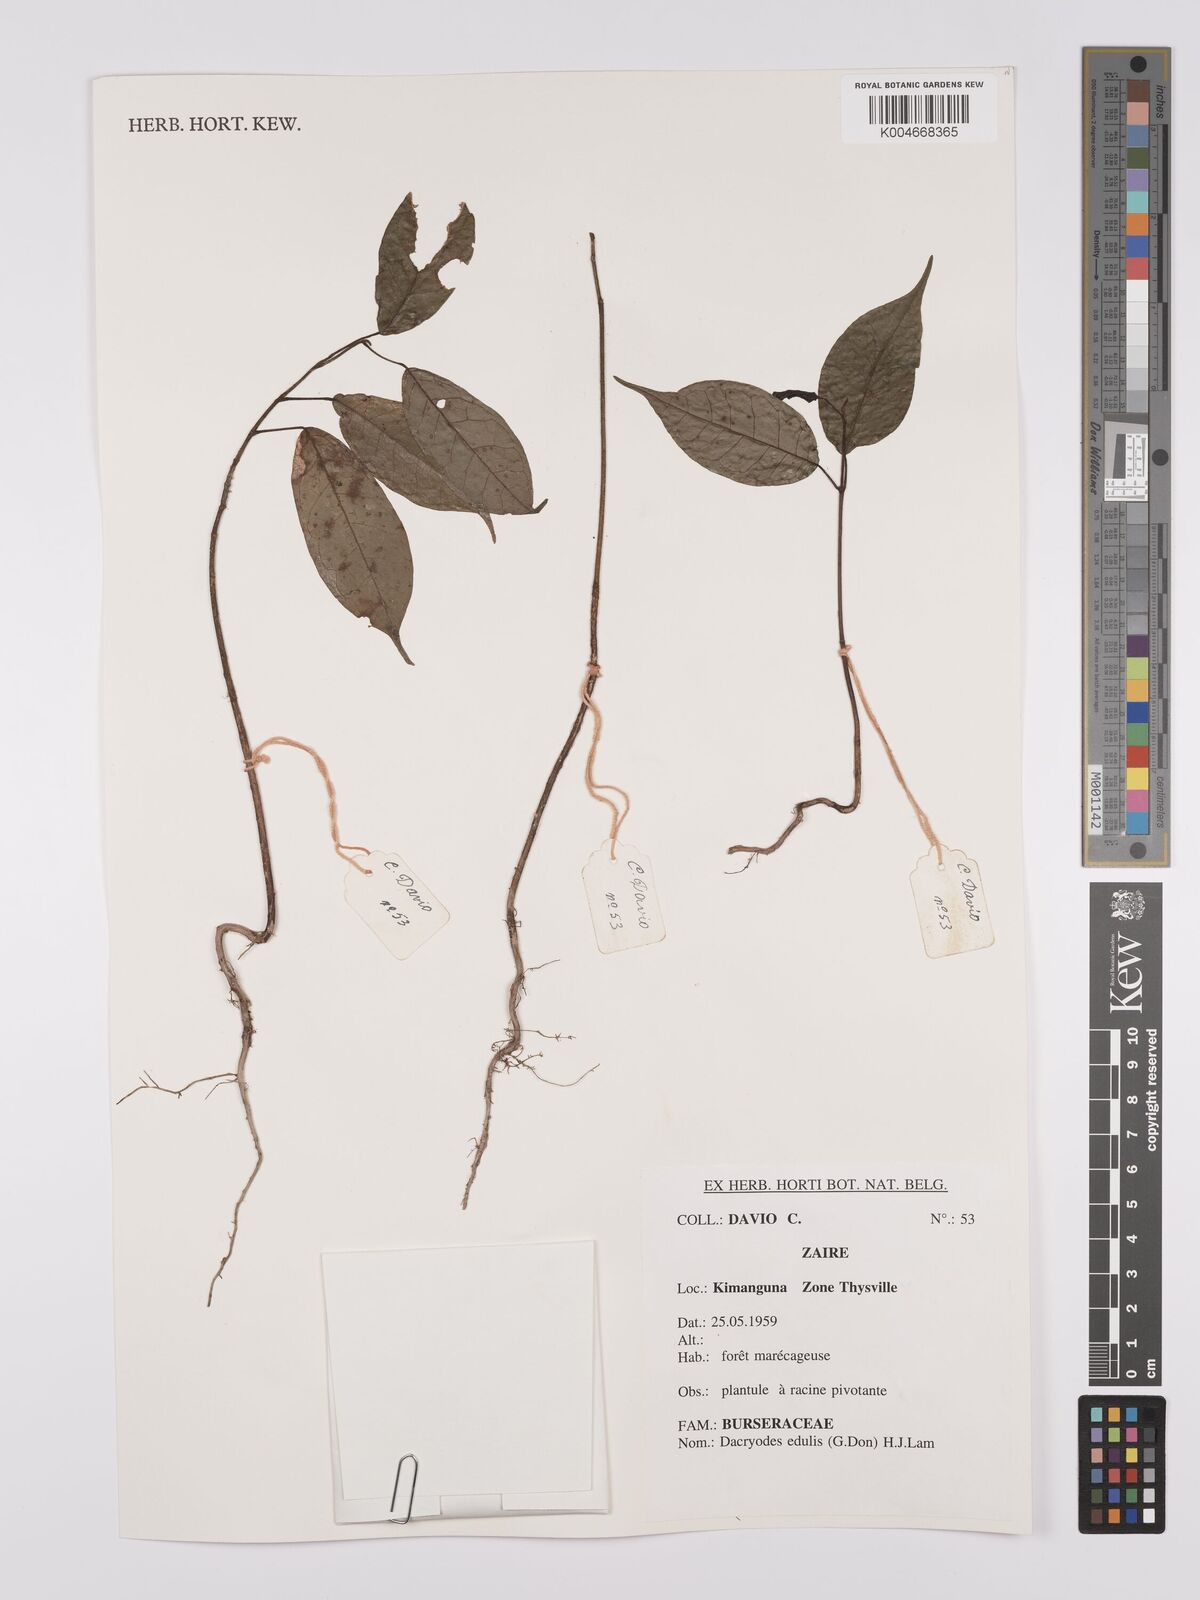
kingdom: Plantae
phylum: Tracheophyta
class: Magnoliopsida
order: Sapindales
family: Burseraceae
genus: Pachylobus
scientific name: Pachylobus edulis
